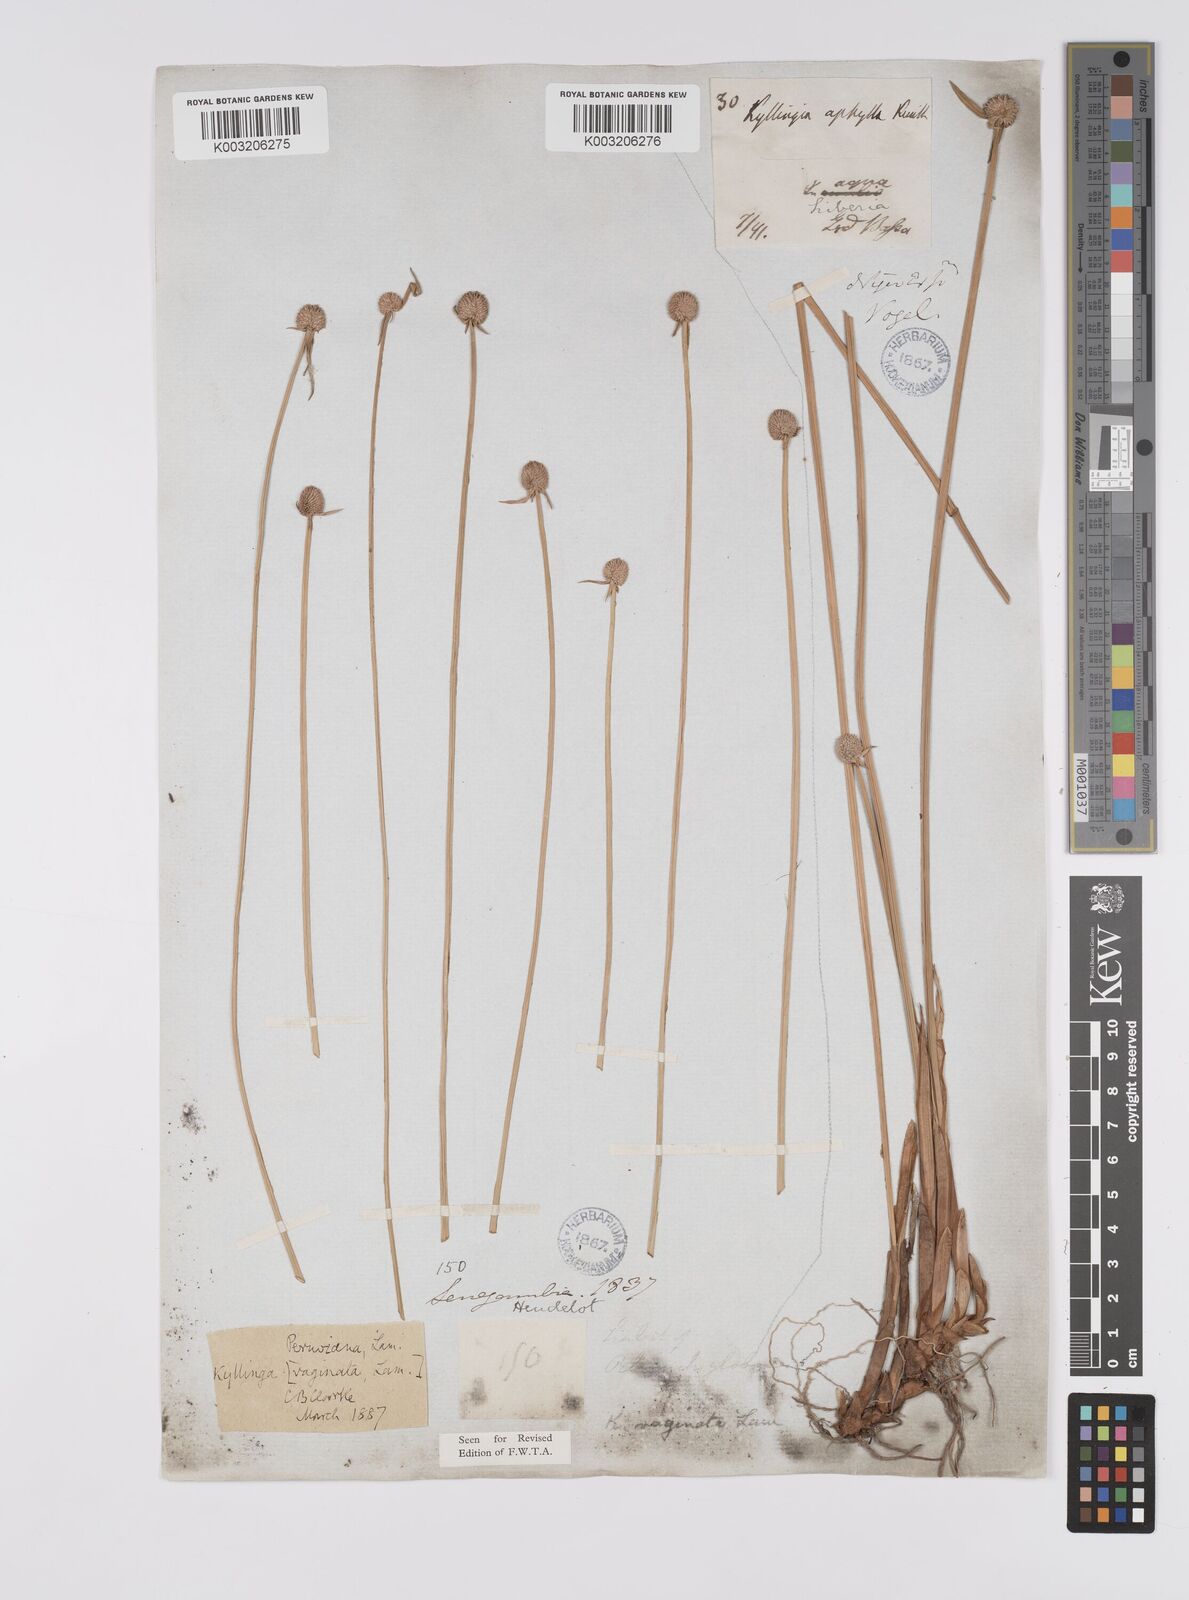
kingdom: Plantae
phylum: Tracheophyta
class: Liliopsida
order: Poales
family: Cyperaceae
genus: Cyperus
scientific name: Cyperus obtusatus
